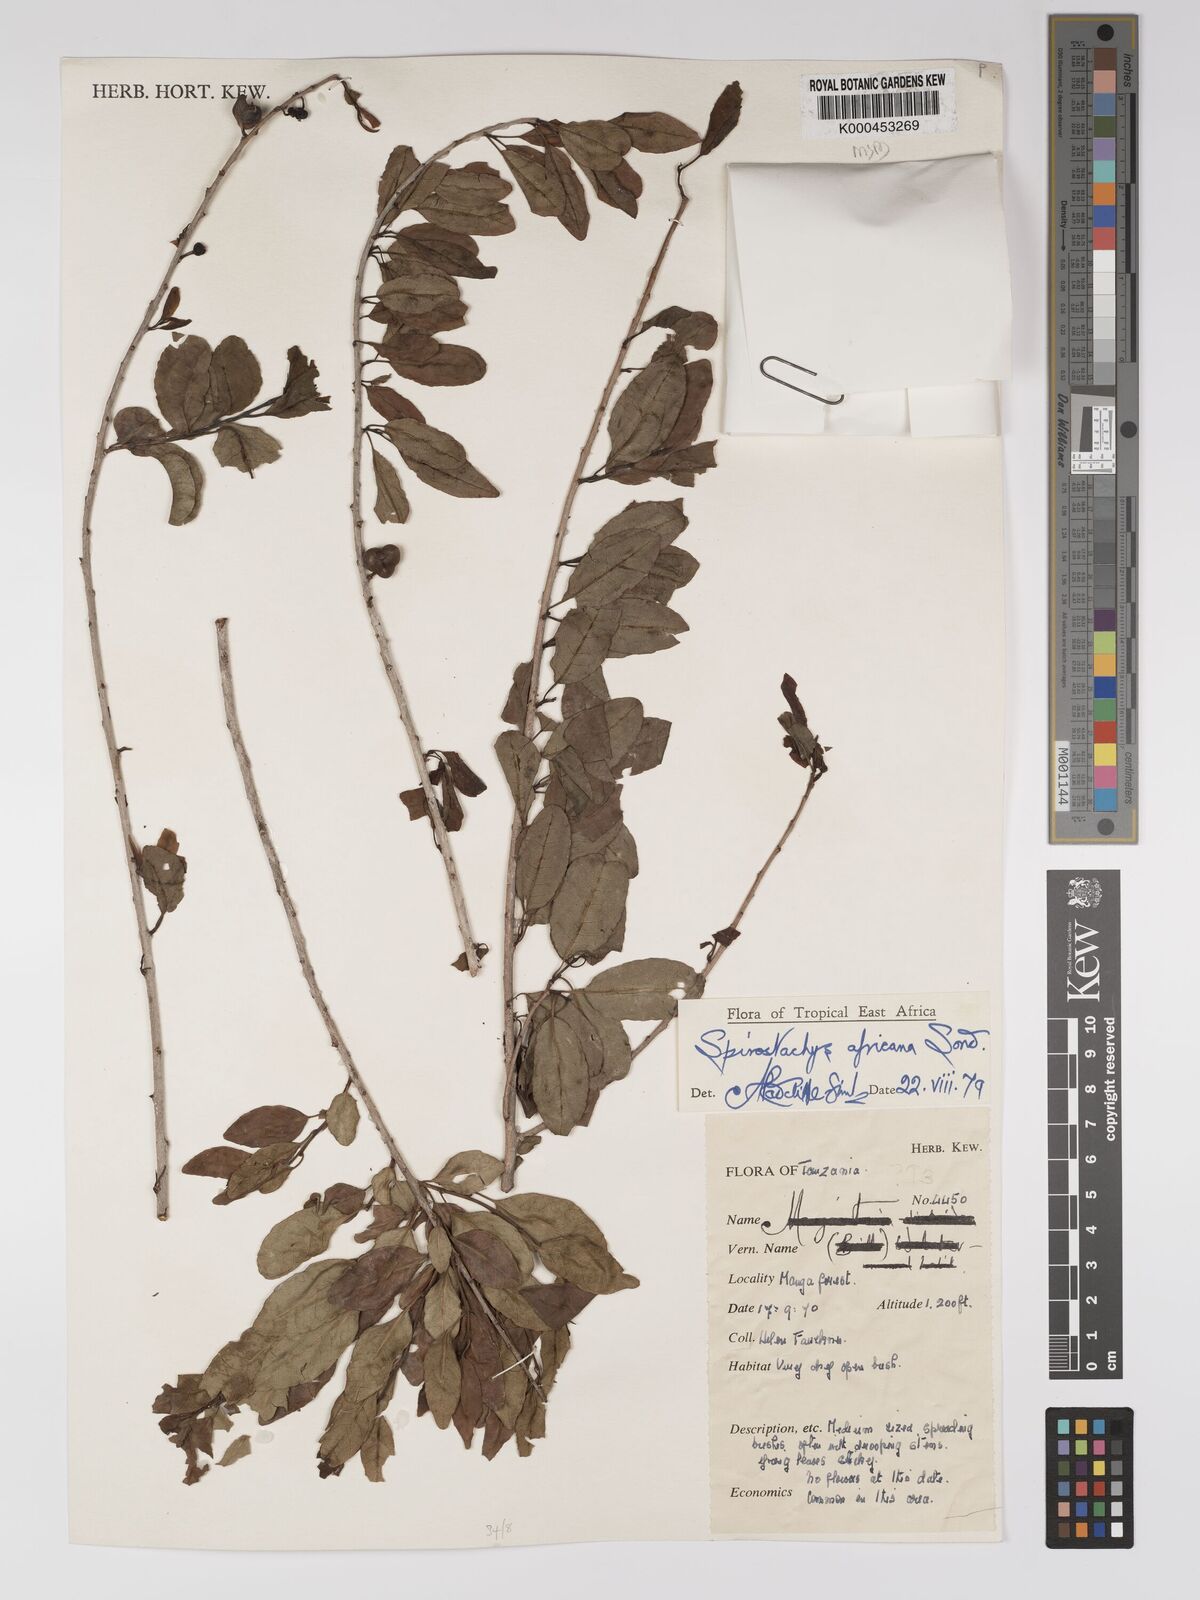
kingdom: Plantae
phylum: Tracheophyta
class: Magnoliopsida
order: Malpighiales
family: Euphorbiaceae
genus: Spirostachys
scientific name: Spirostachys africana
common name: Tamboti
